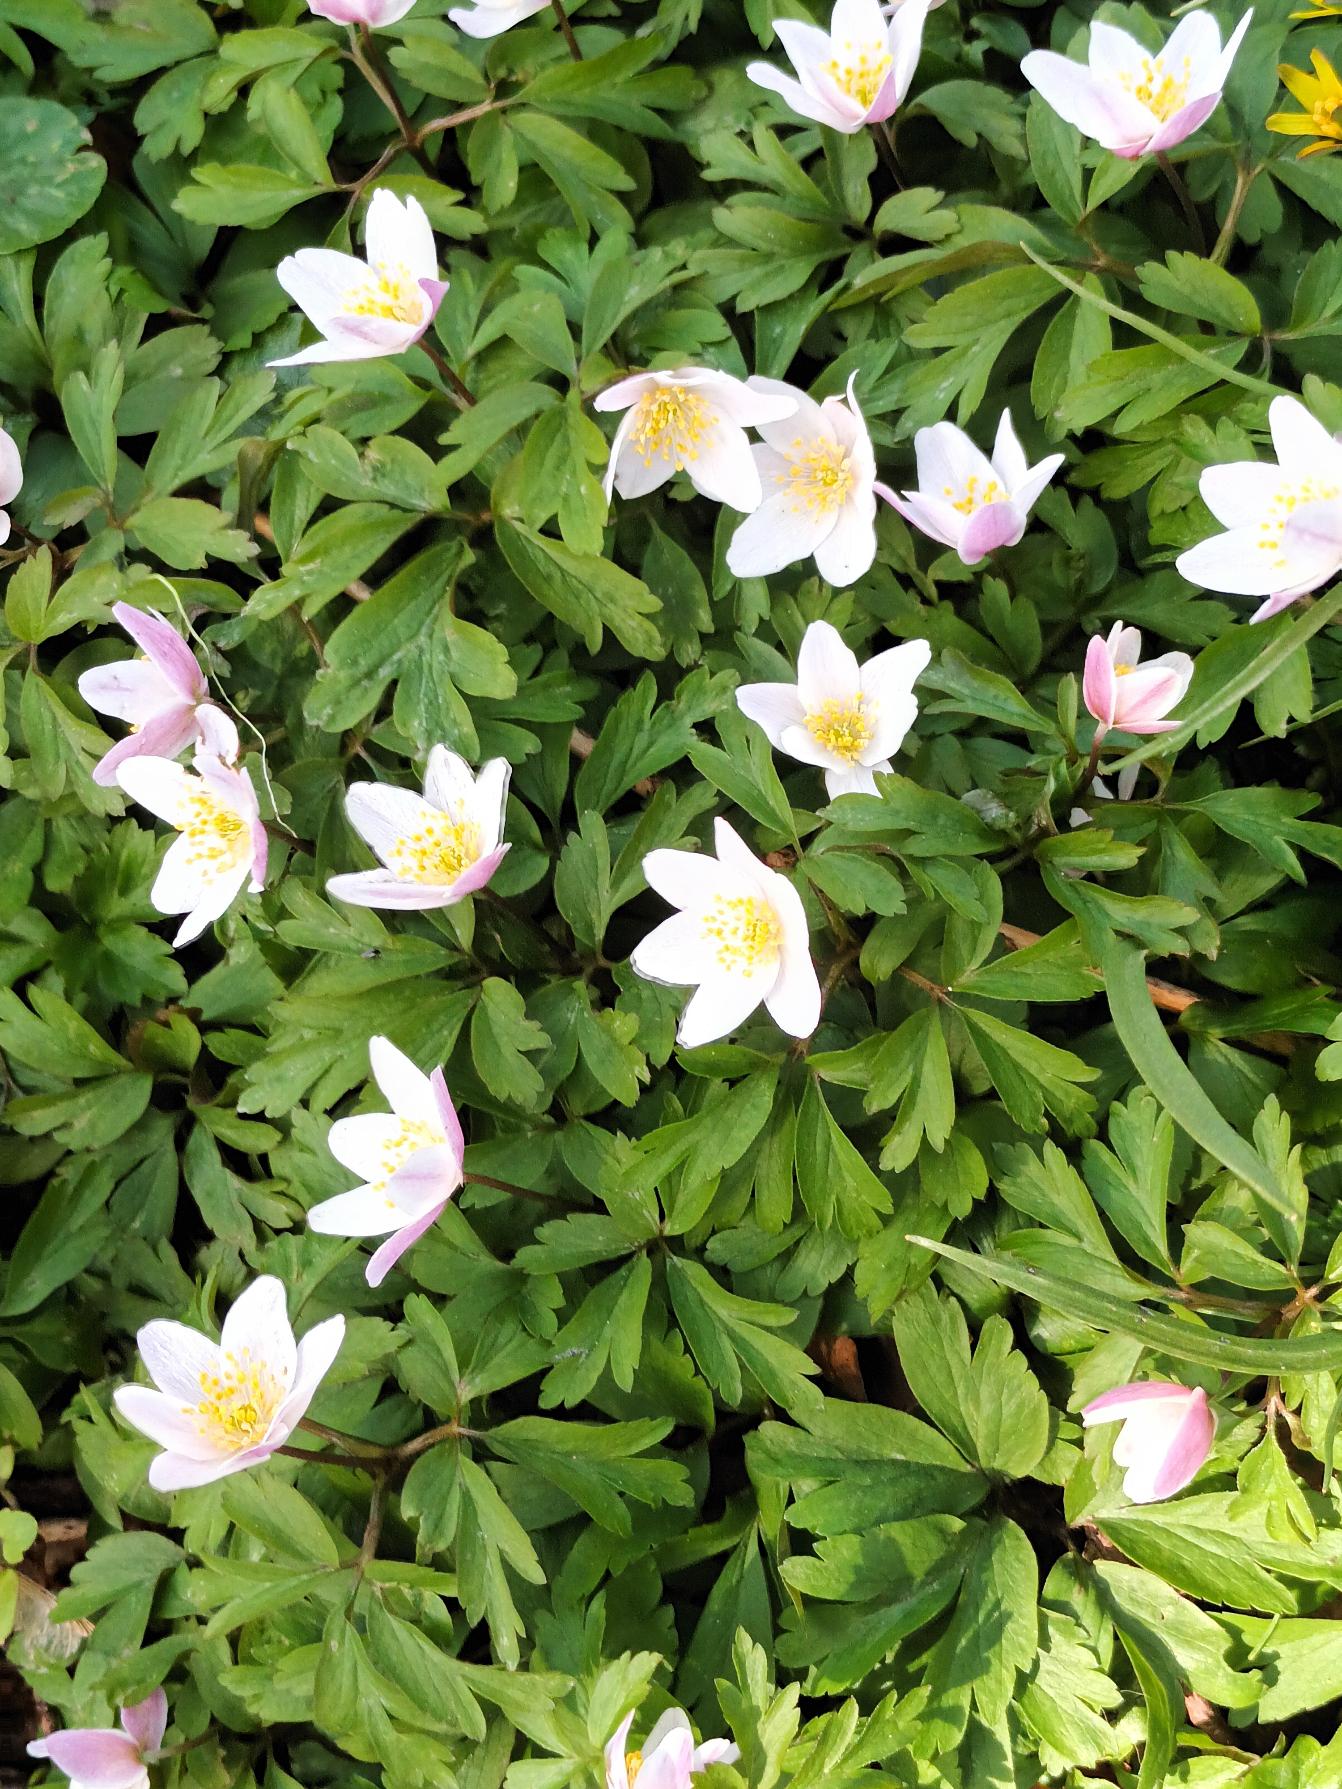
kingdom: Plantae
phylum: Tracheophyta
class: Magnoliopsida
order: Ranunculales
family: Ranunculaceae
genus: Anemone
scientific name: Anemone nemorosa
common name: Hvid anemone
